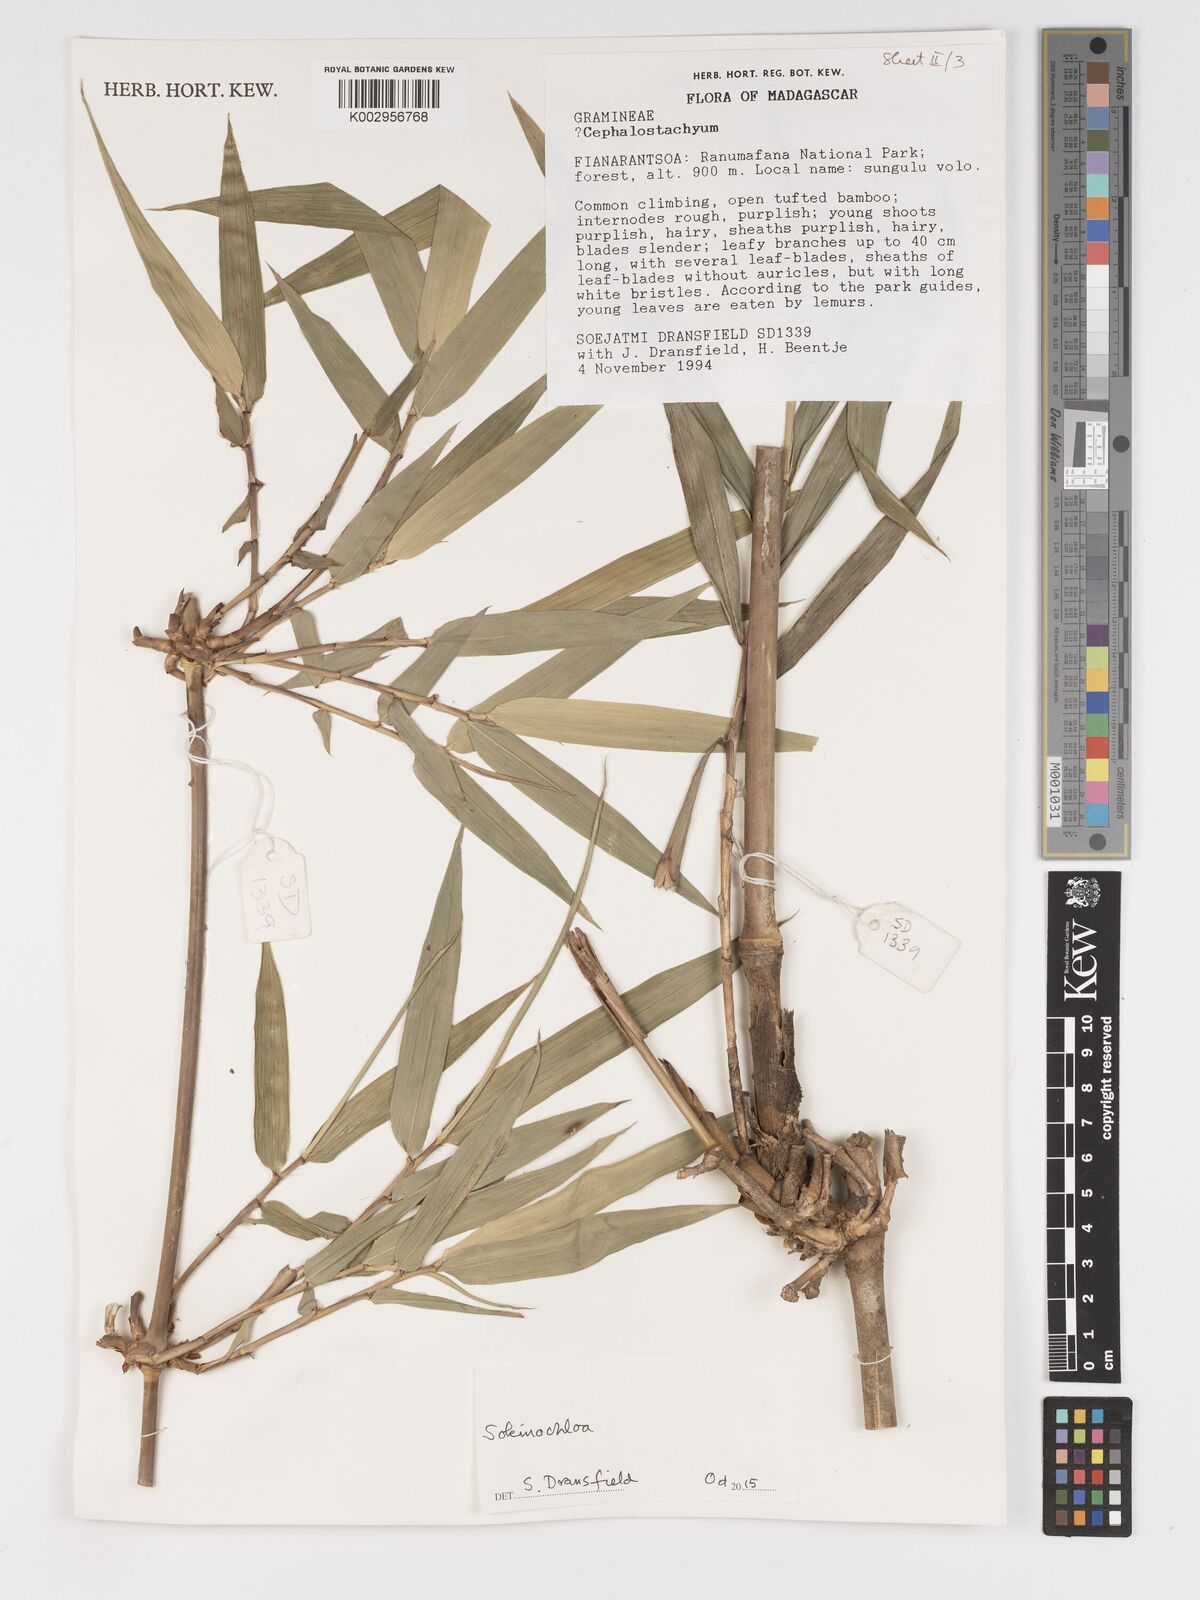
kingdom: Plantae
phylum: Tracheophyta
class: Liliopsida
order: Poales
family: Poaceae
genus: Sokinochloa
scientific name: Sokinochloa
